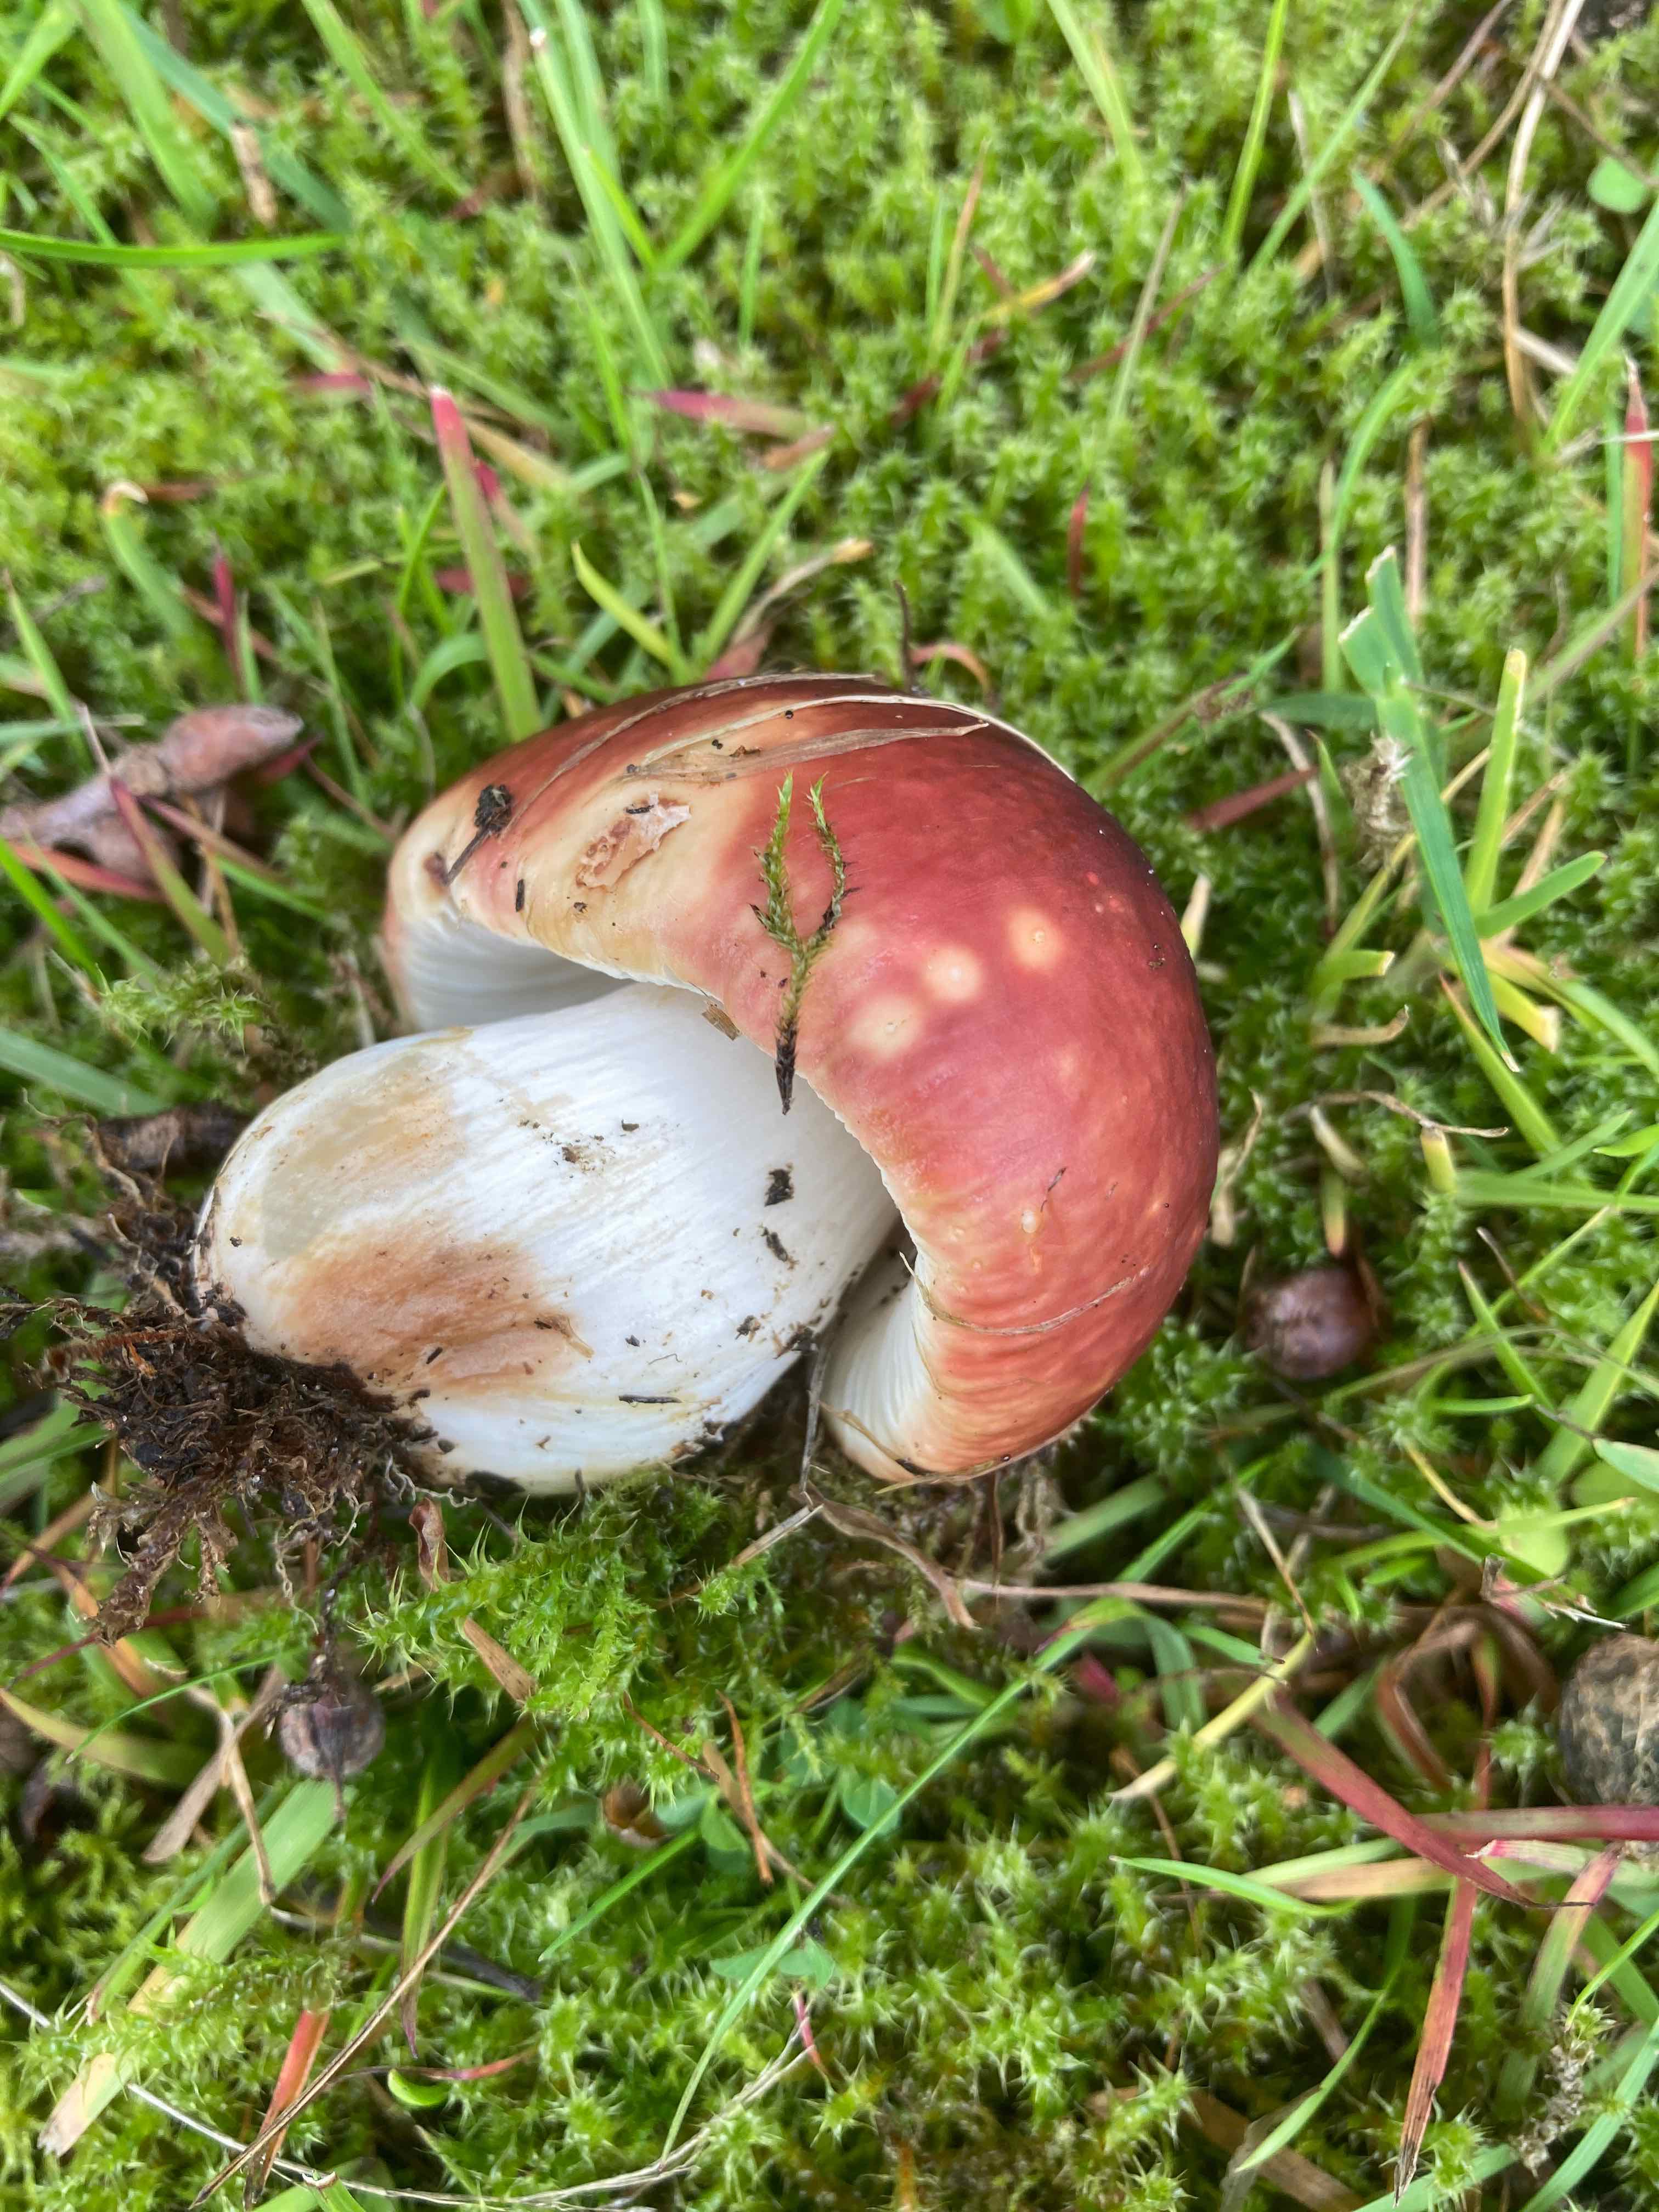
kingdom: Fungi
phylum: Basidiomycota
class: Agaricomycetes
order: Russulales
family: Russulaceae
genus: Russula
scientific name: Russula graveolens
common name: bugtet skørhat
